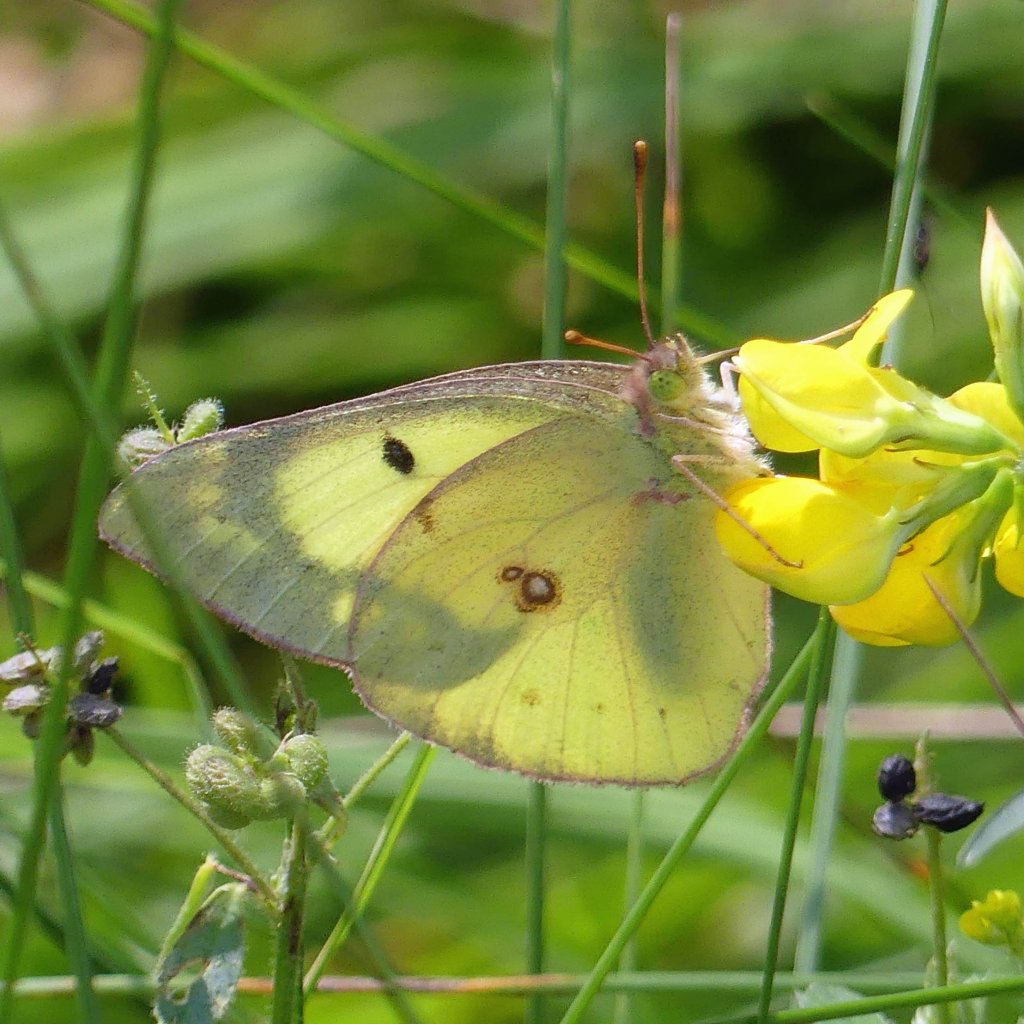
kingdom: Animalia
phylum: Arthropoda
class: Insecta
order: Lepidoptera
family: Pieridae
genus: Colias
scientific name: Colias philodice
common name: Clouded Sulphur
